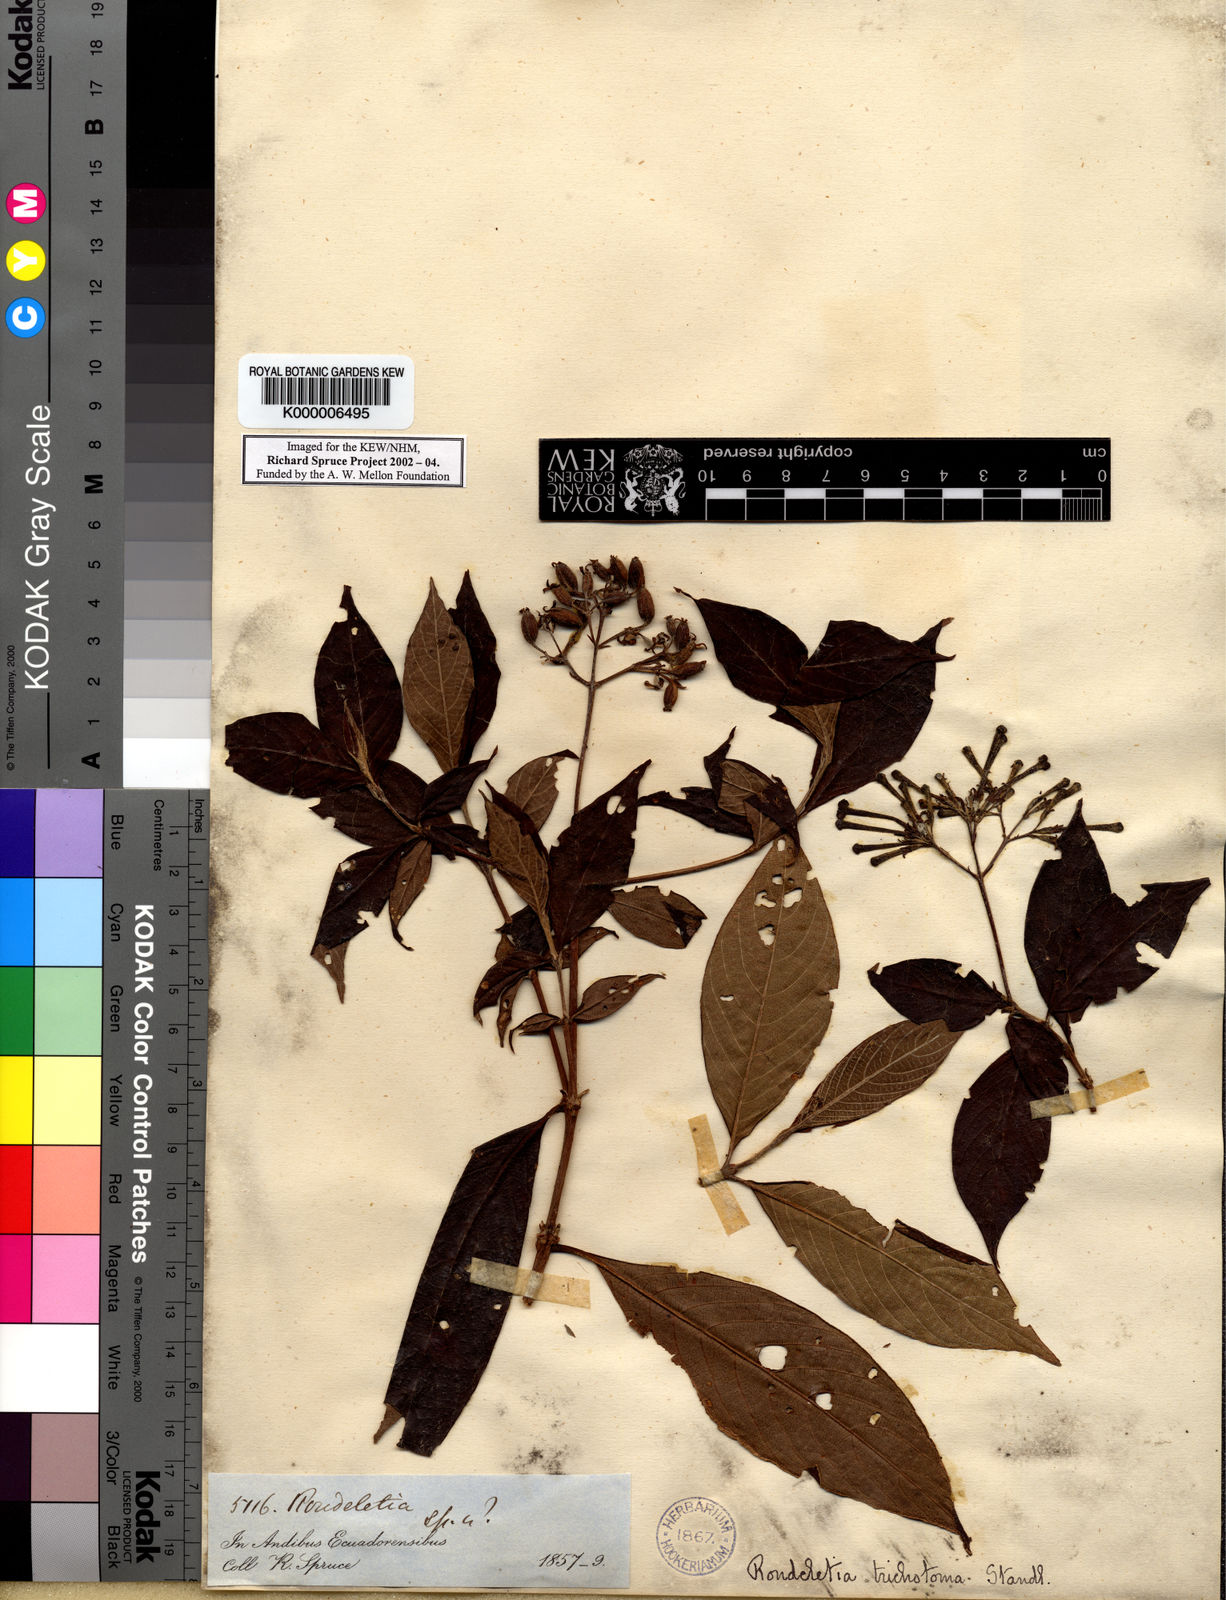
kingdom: Plantae
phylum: Tracheophyta
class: Magnoliopsida
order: Gentianales
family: Rubiaceae
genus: Arachnothryx
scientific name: Arachnothryx reflexa
